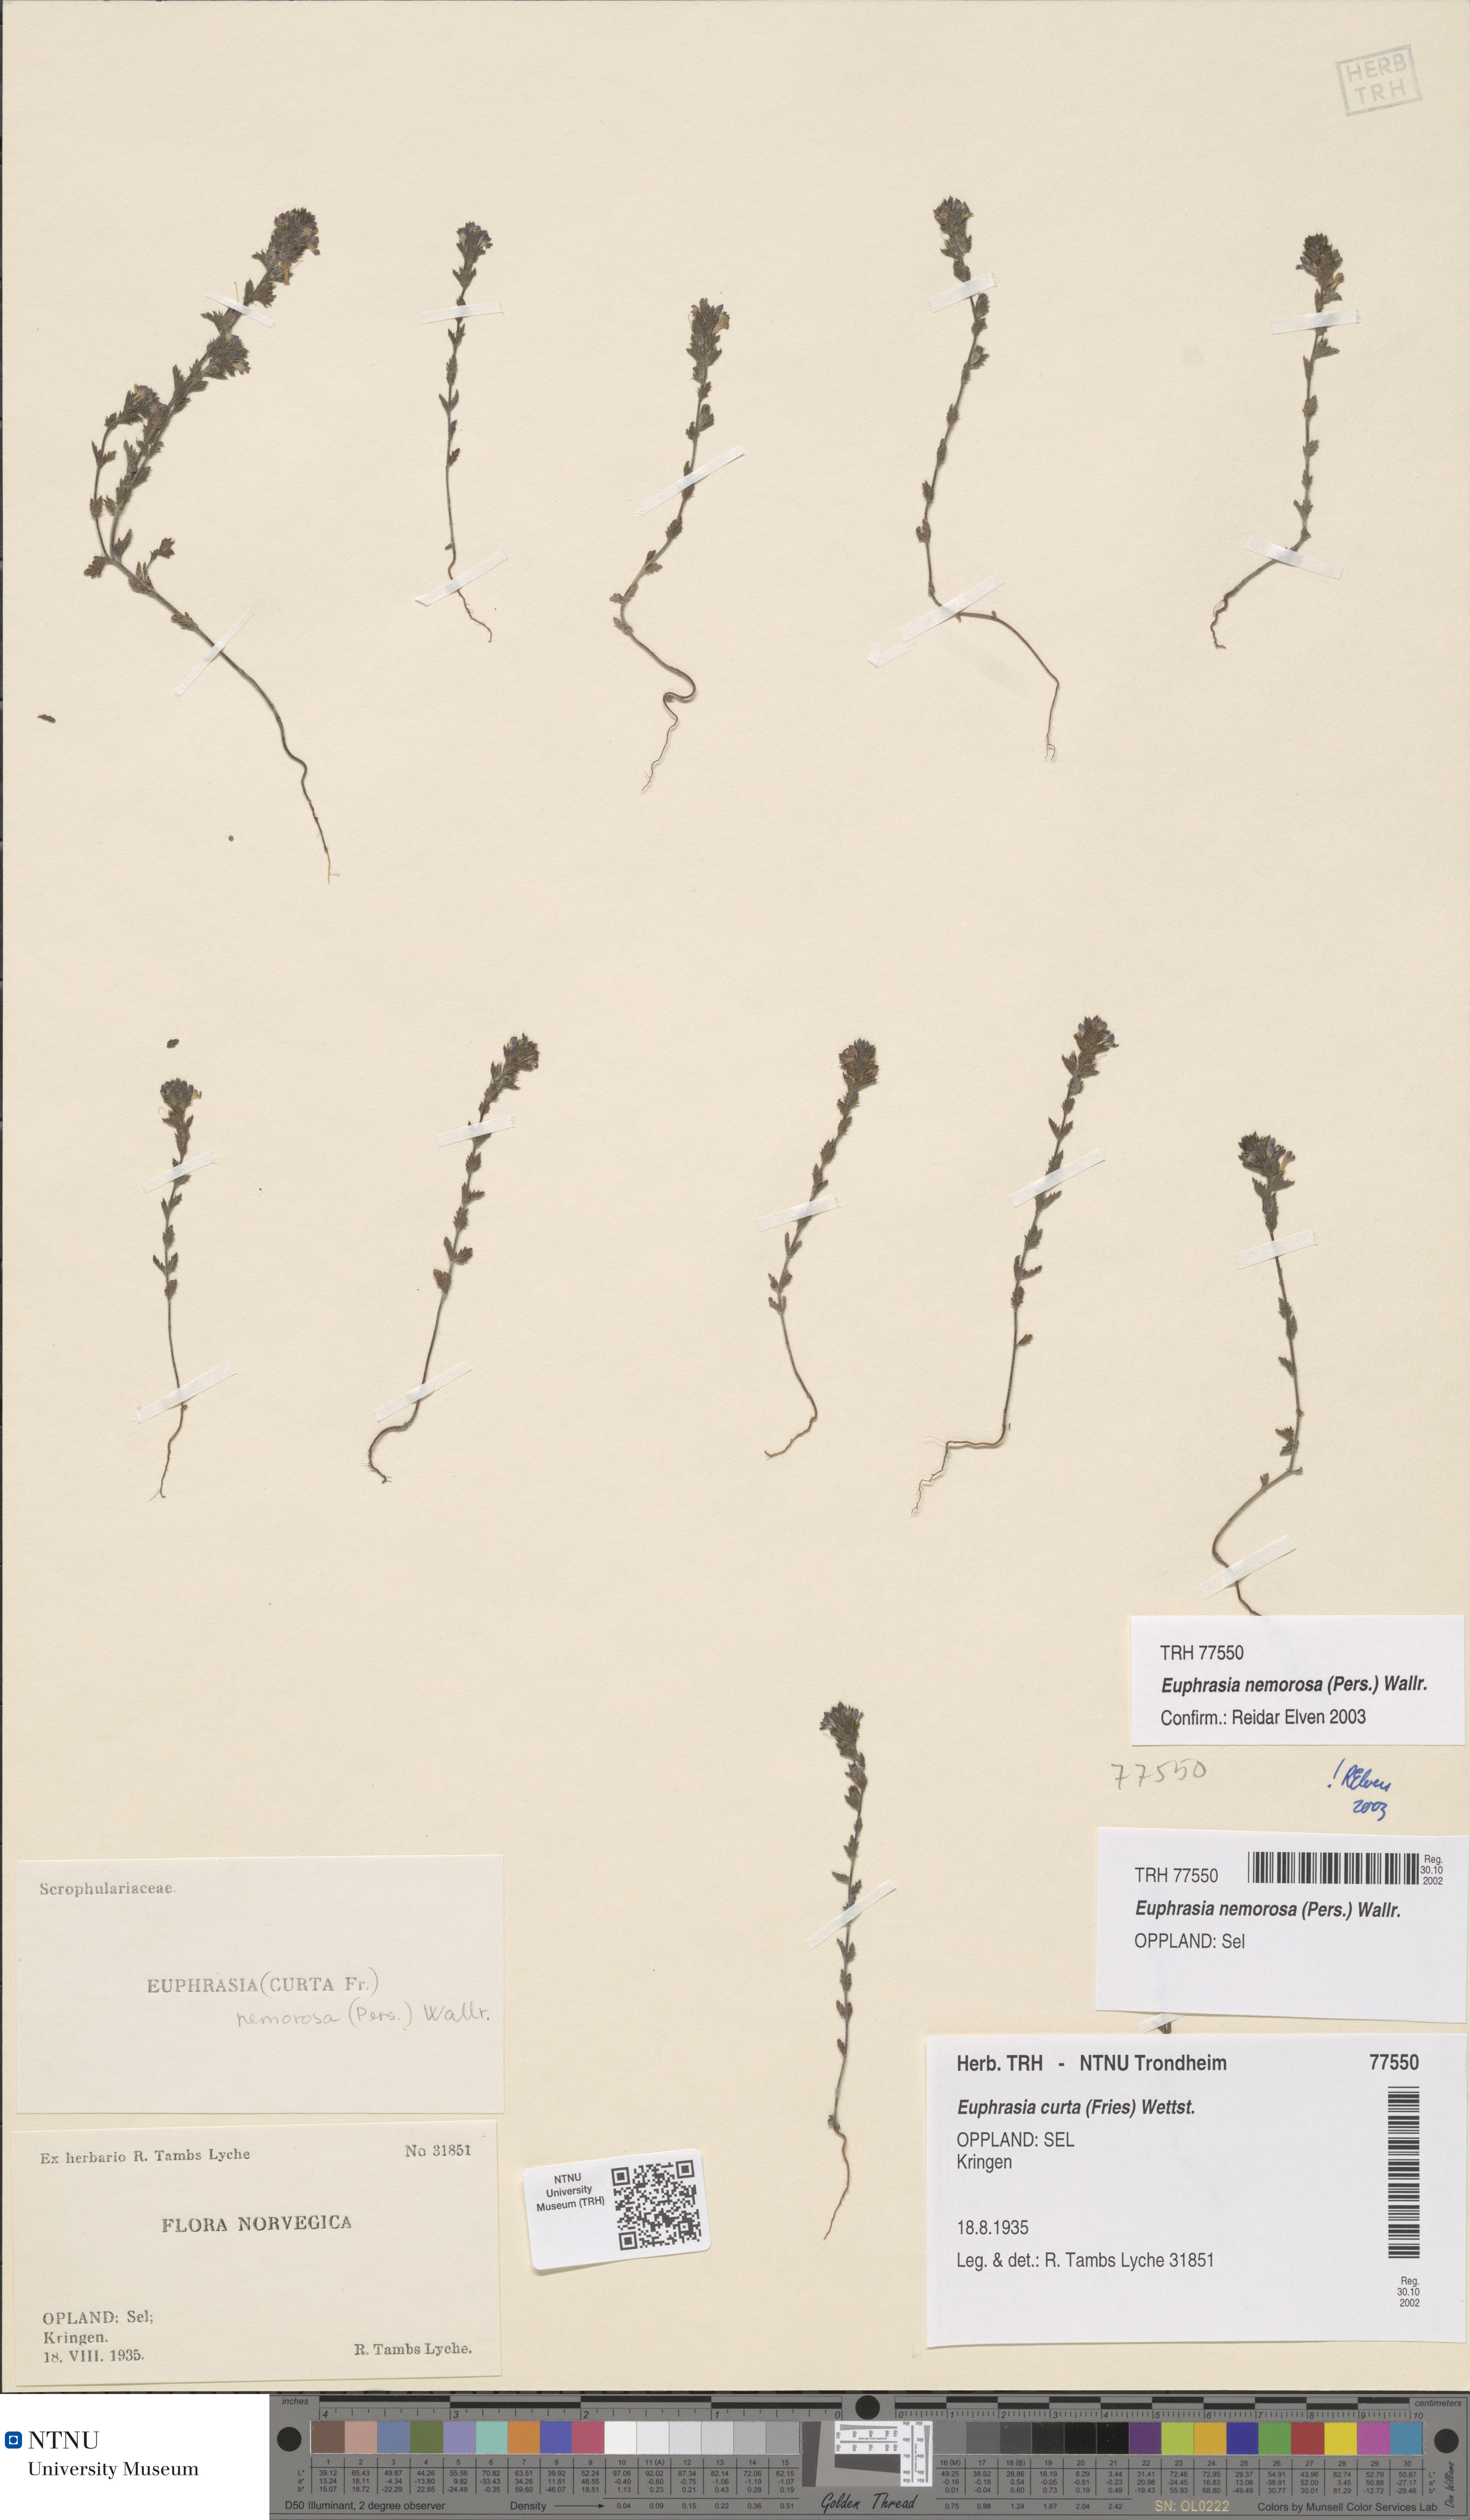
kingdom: Plantae
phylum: Tracheophyta
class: Magnoliopsida
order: Lamiales
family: Orobanchaceae
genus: Euphrasia
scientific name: Euphrasia nemorosa
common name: Common eyebright
